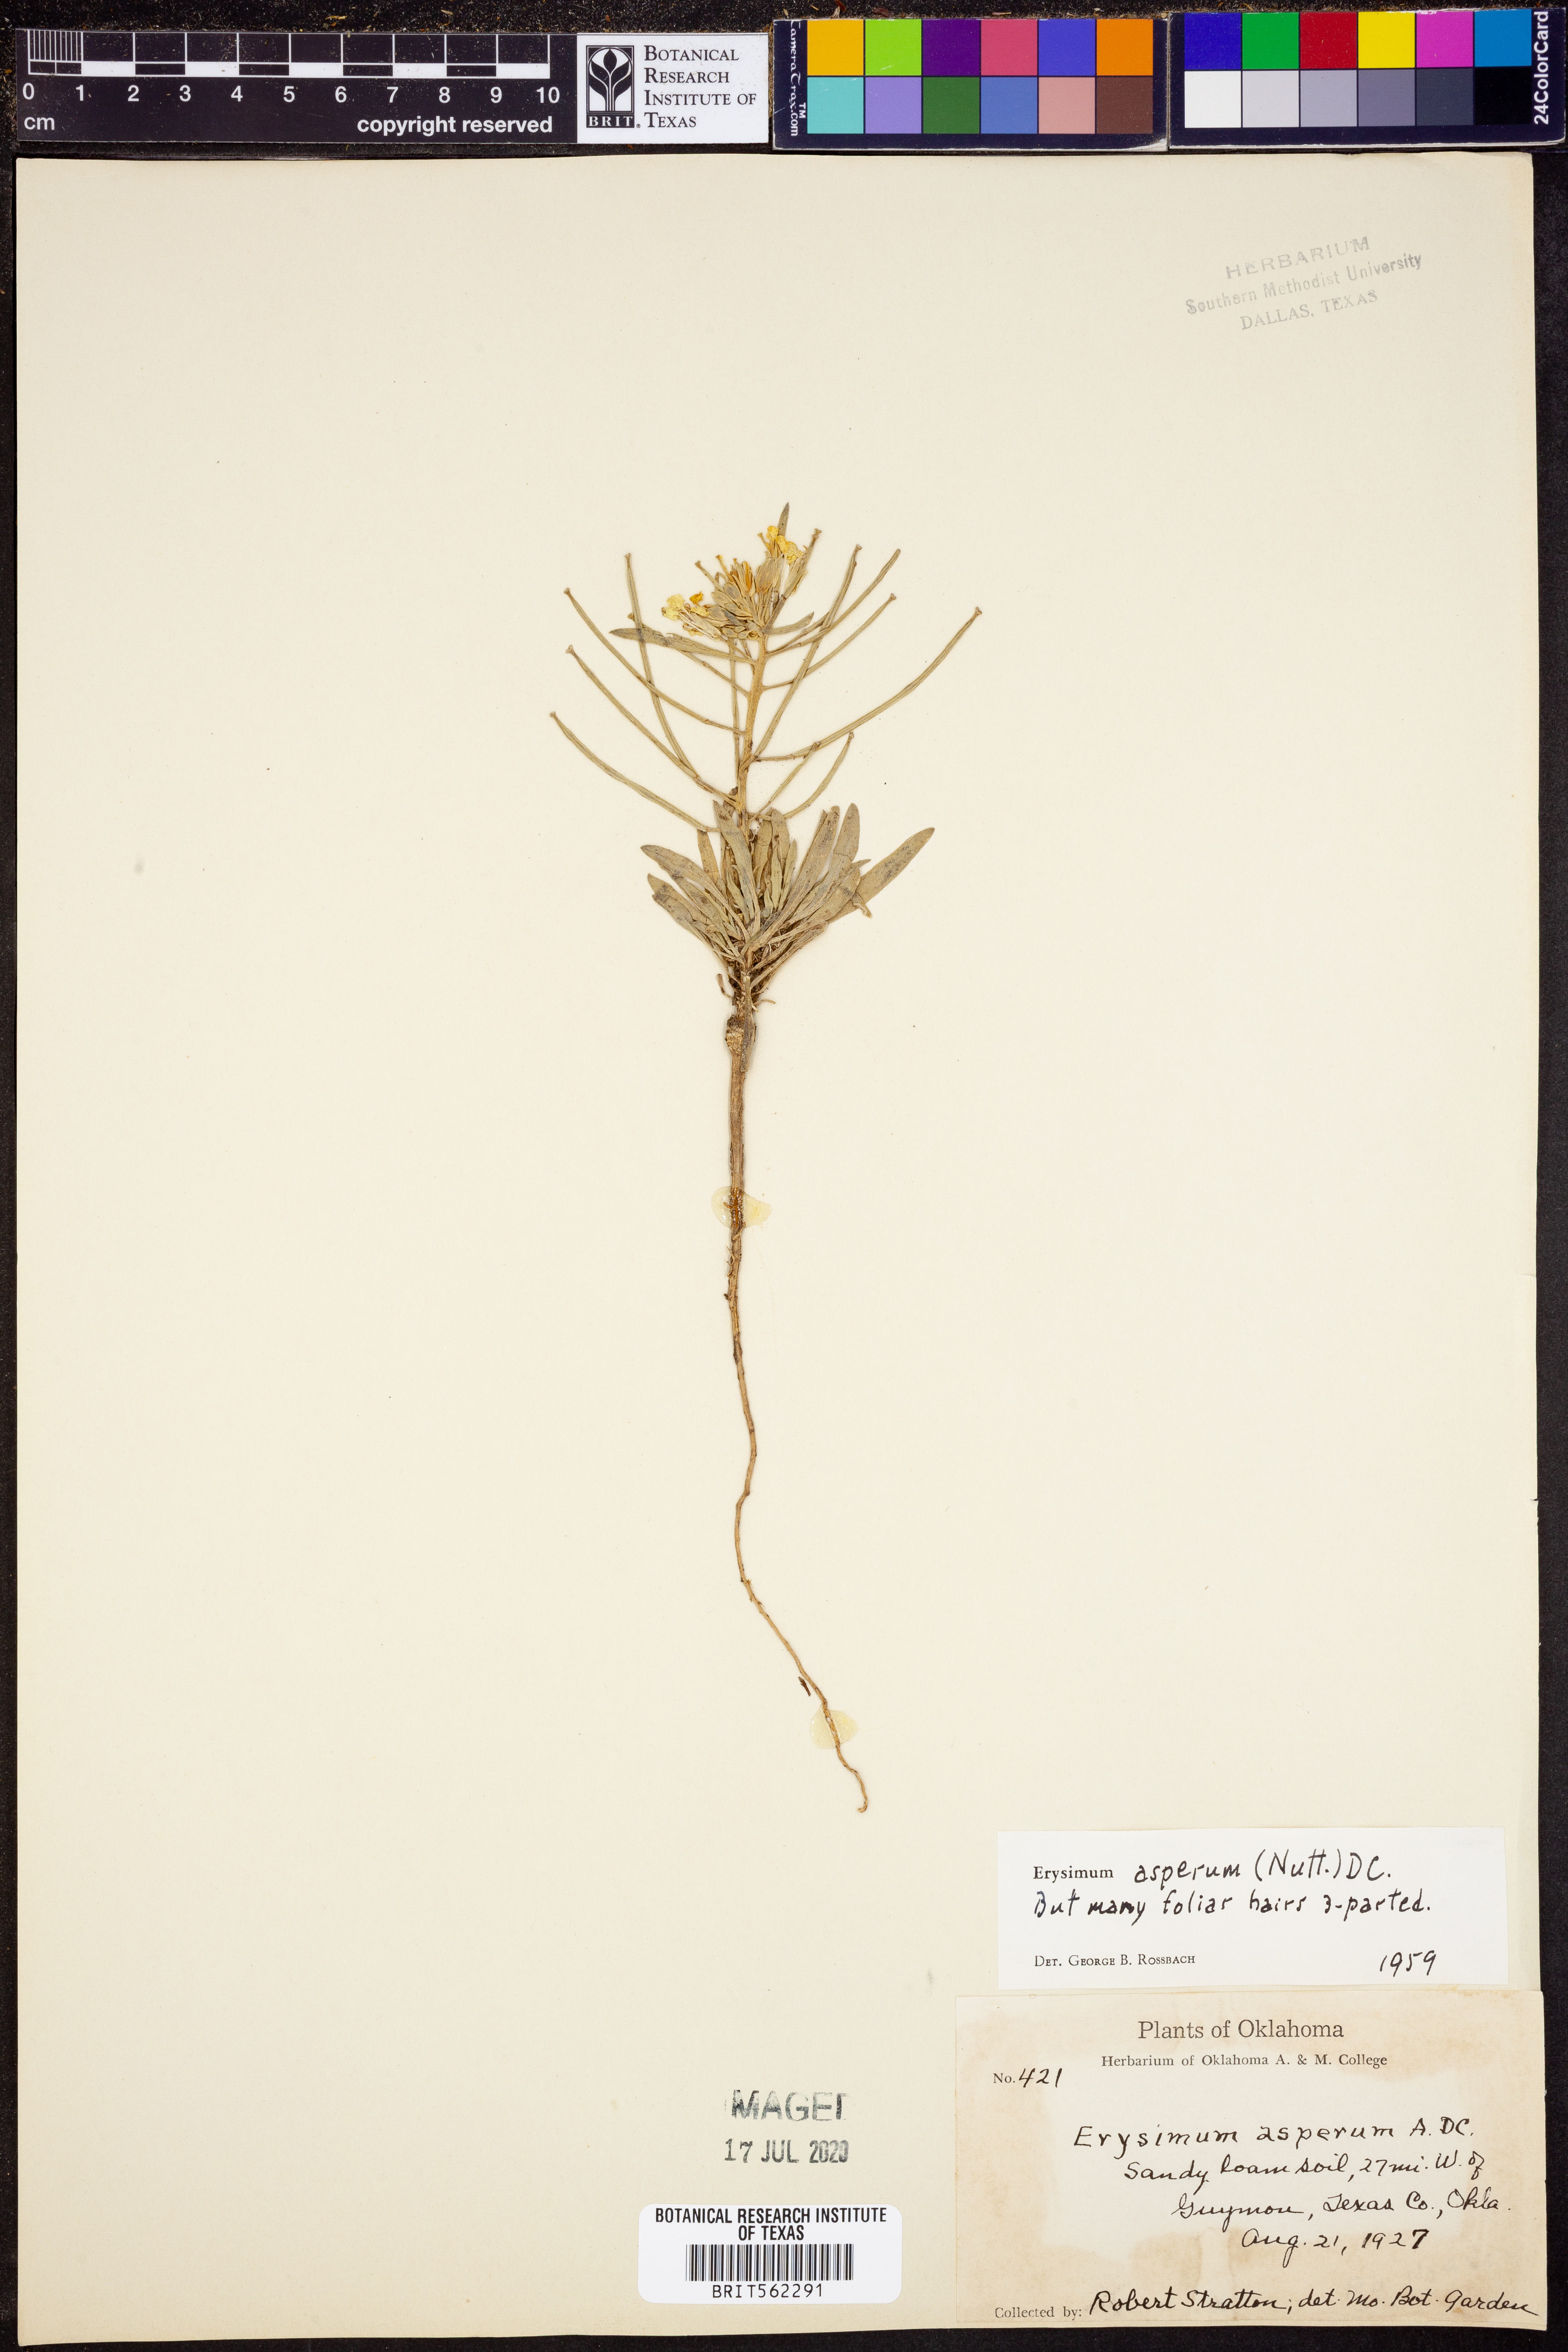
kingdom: Plantae
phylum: Tracheophyta
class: Magnoliopsida
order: Brassicales
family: Brassicaceae
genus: Erysimum
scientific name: Erysimum asperum
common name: Western wallflower
